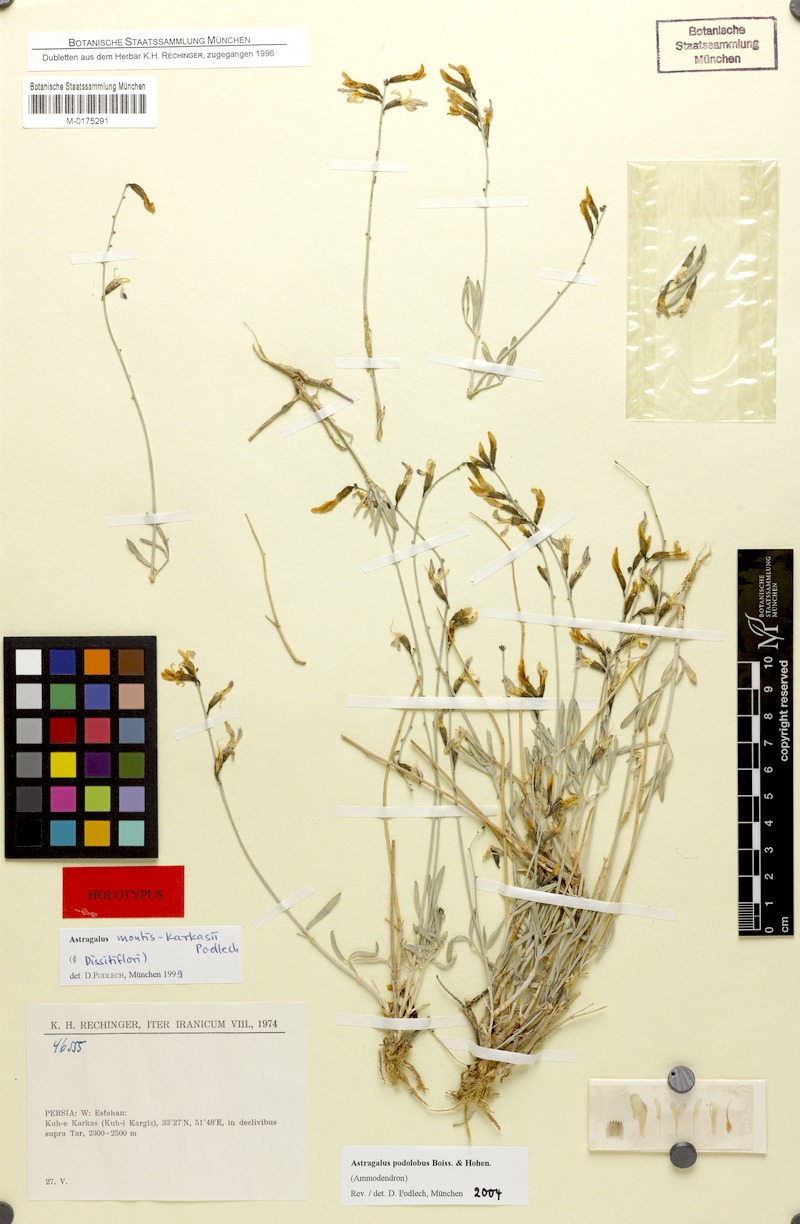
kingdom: Plantae
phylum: Tracheophyta
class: Magnoliopsida
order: Fabales
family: Fabaceae
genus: Astragalus
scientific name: Astragalus podolobus
